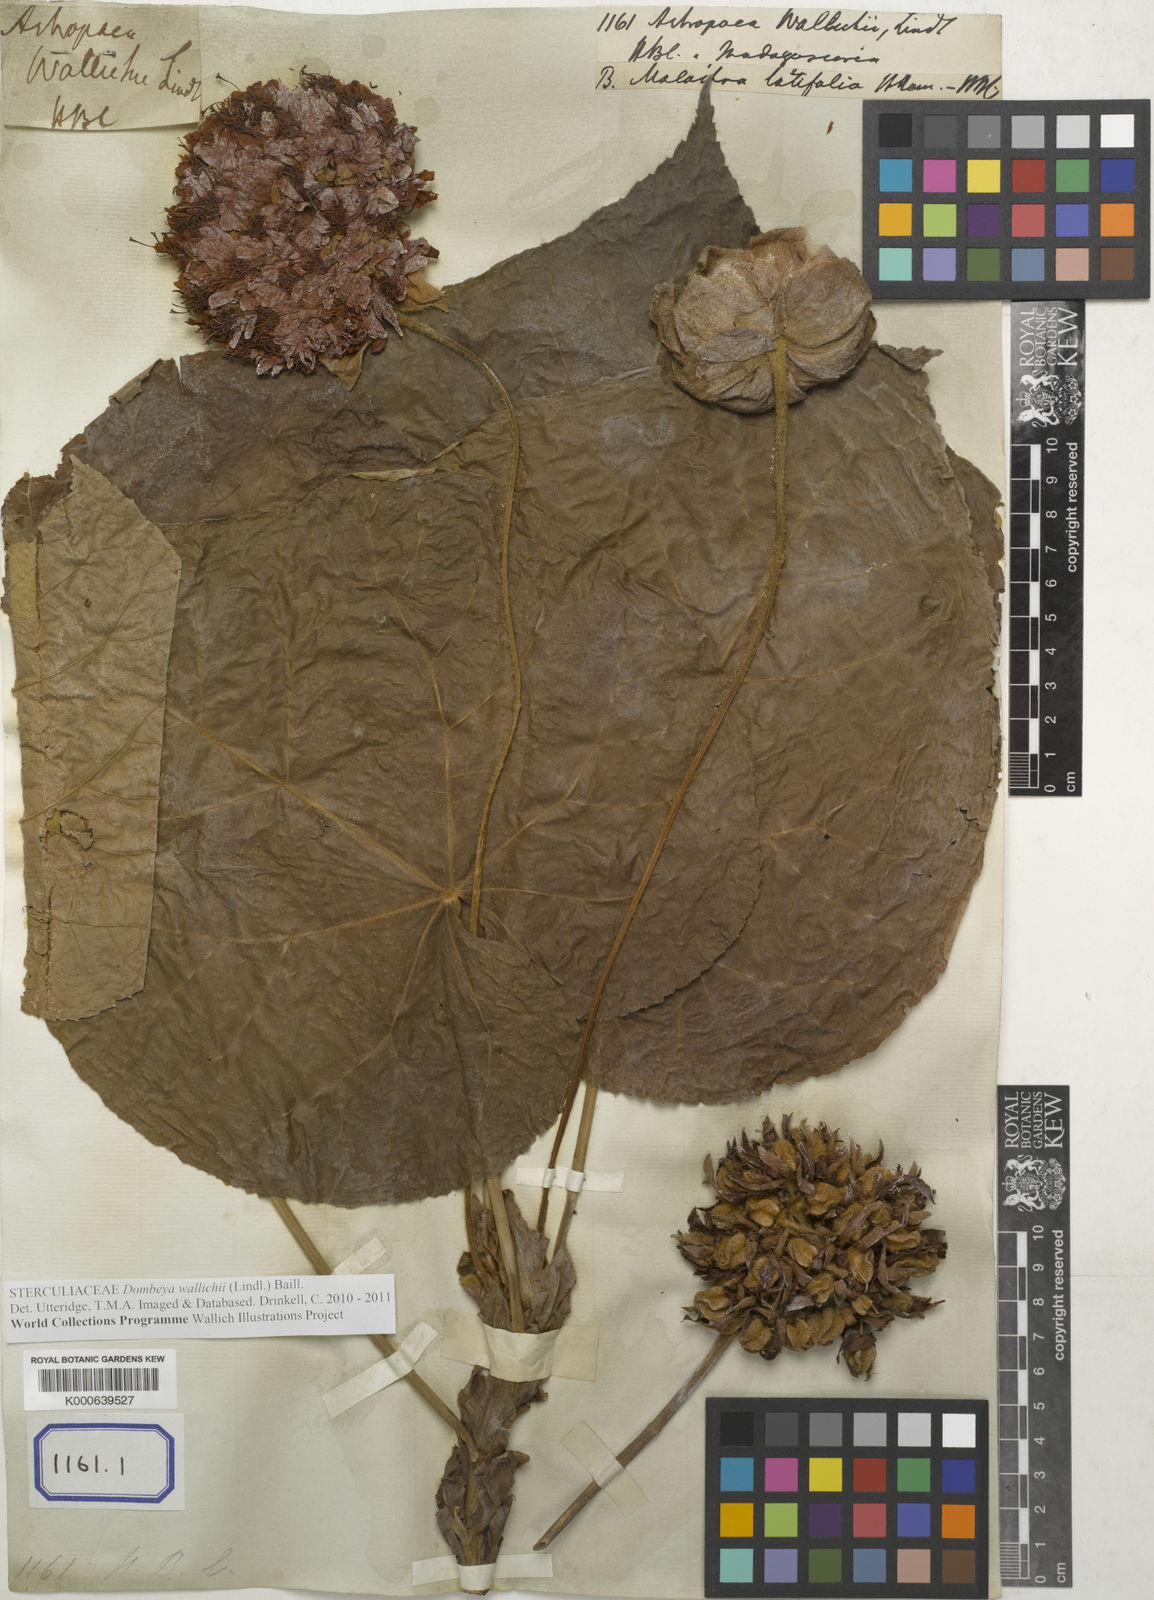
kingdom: Plantae
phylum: Tracheophyta
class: Magnoliopsida
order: Malvales
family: Malvaceae
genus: Dombeya
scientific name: Dombeya
